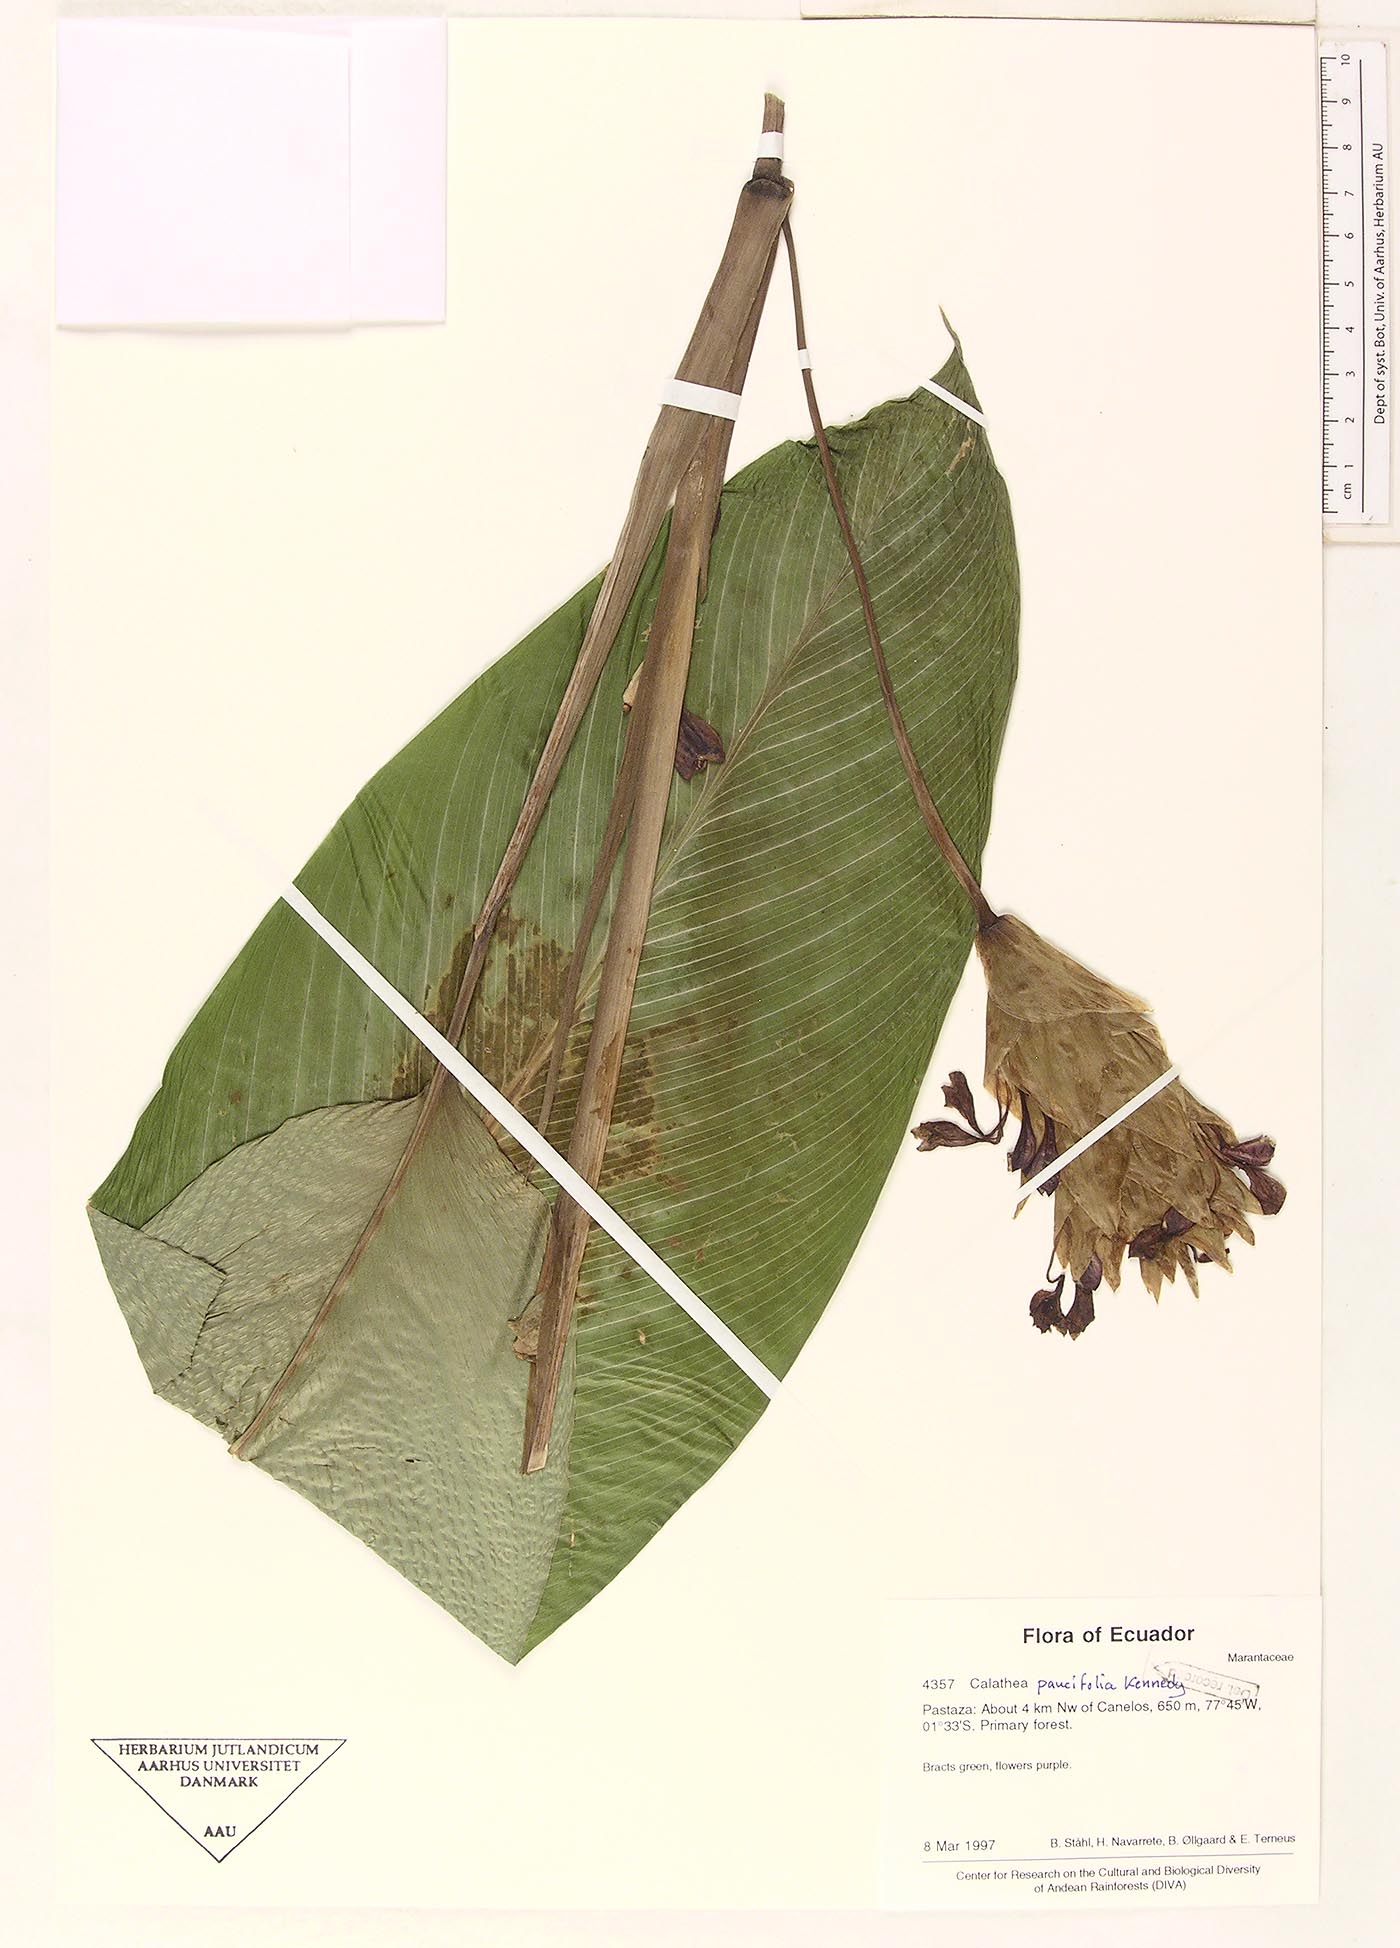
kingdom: Plantae
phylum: Tracheophyta
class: Liliopsida
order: Zingiberales
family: Marantaceae
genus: Goeppertia
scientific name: Goeppertia paucifolia
